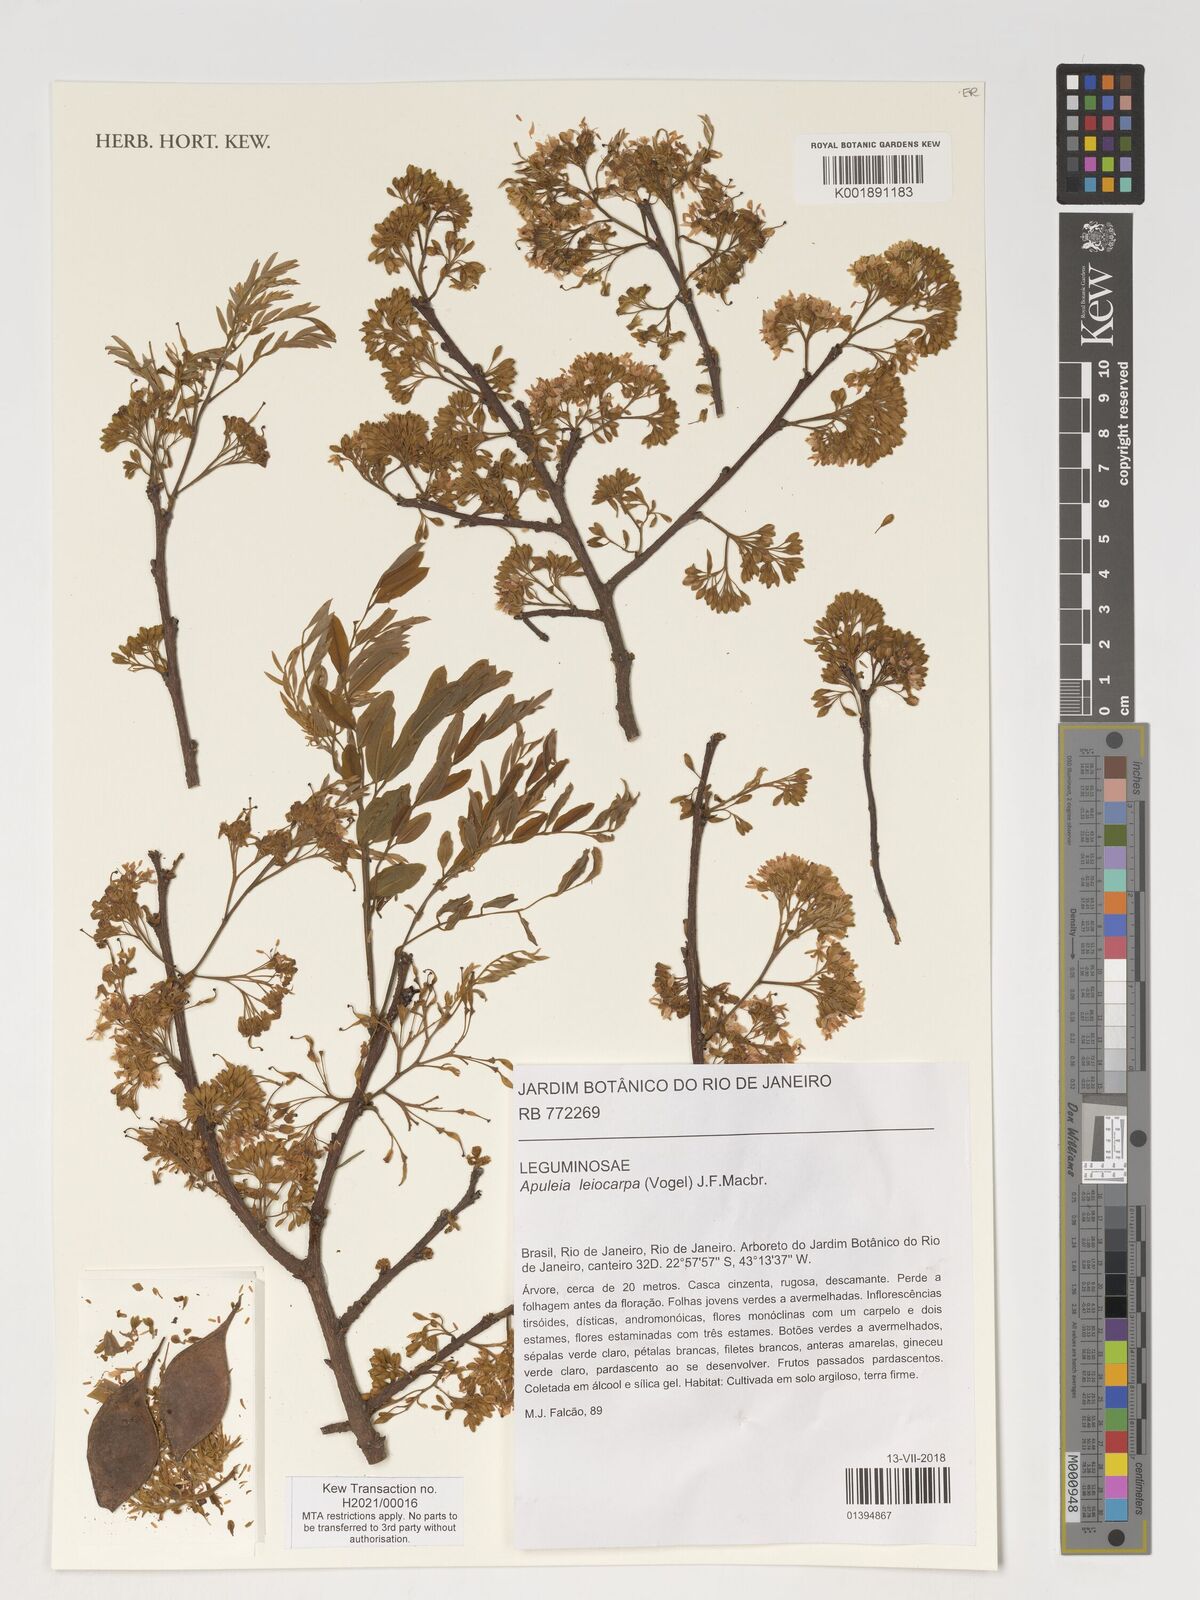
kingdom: Plantae
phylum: Tracheophyta
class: Magnoliopsida
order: Fabales
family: Fabaceae
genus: Apuleia
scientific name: Apuleia leiocarpa
